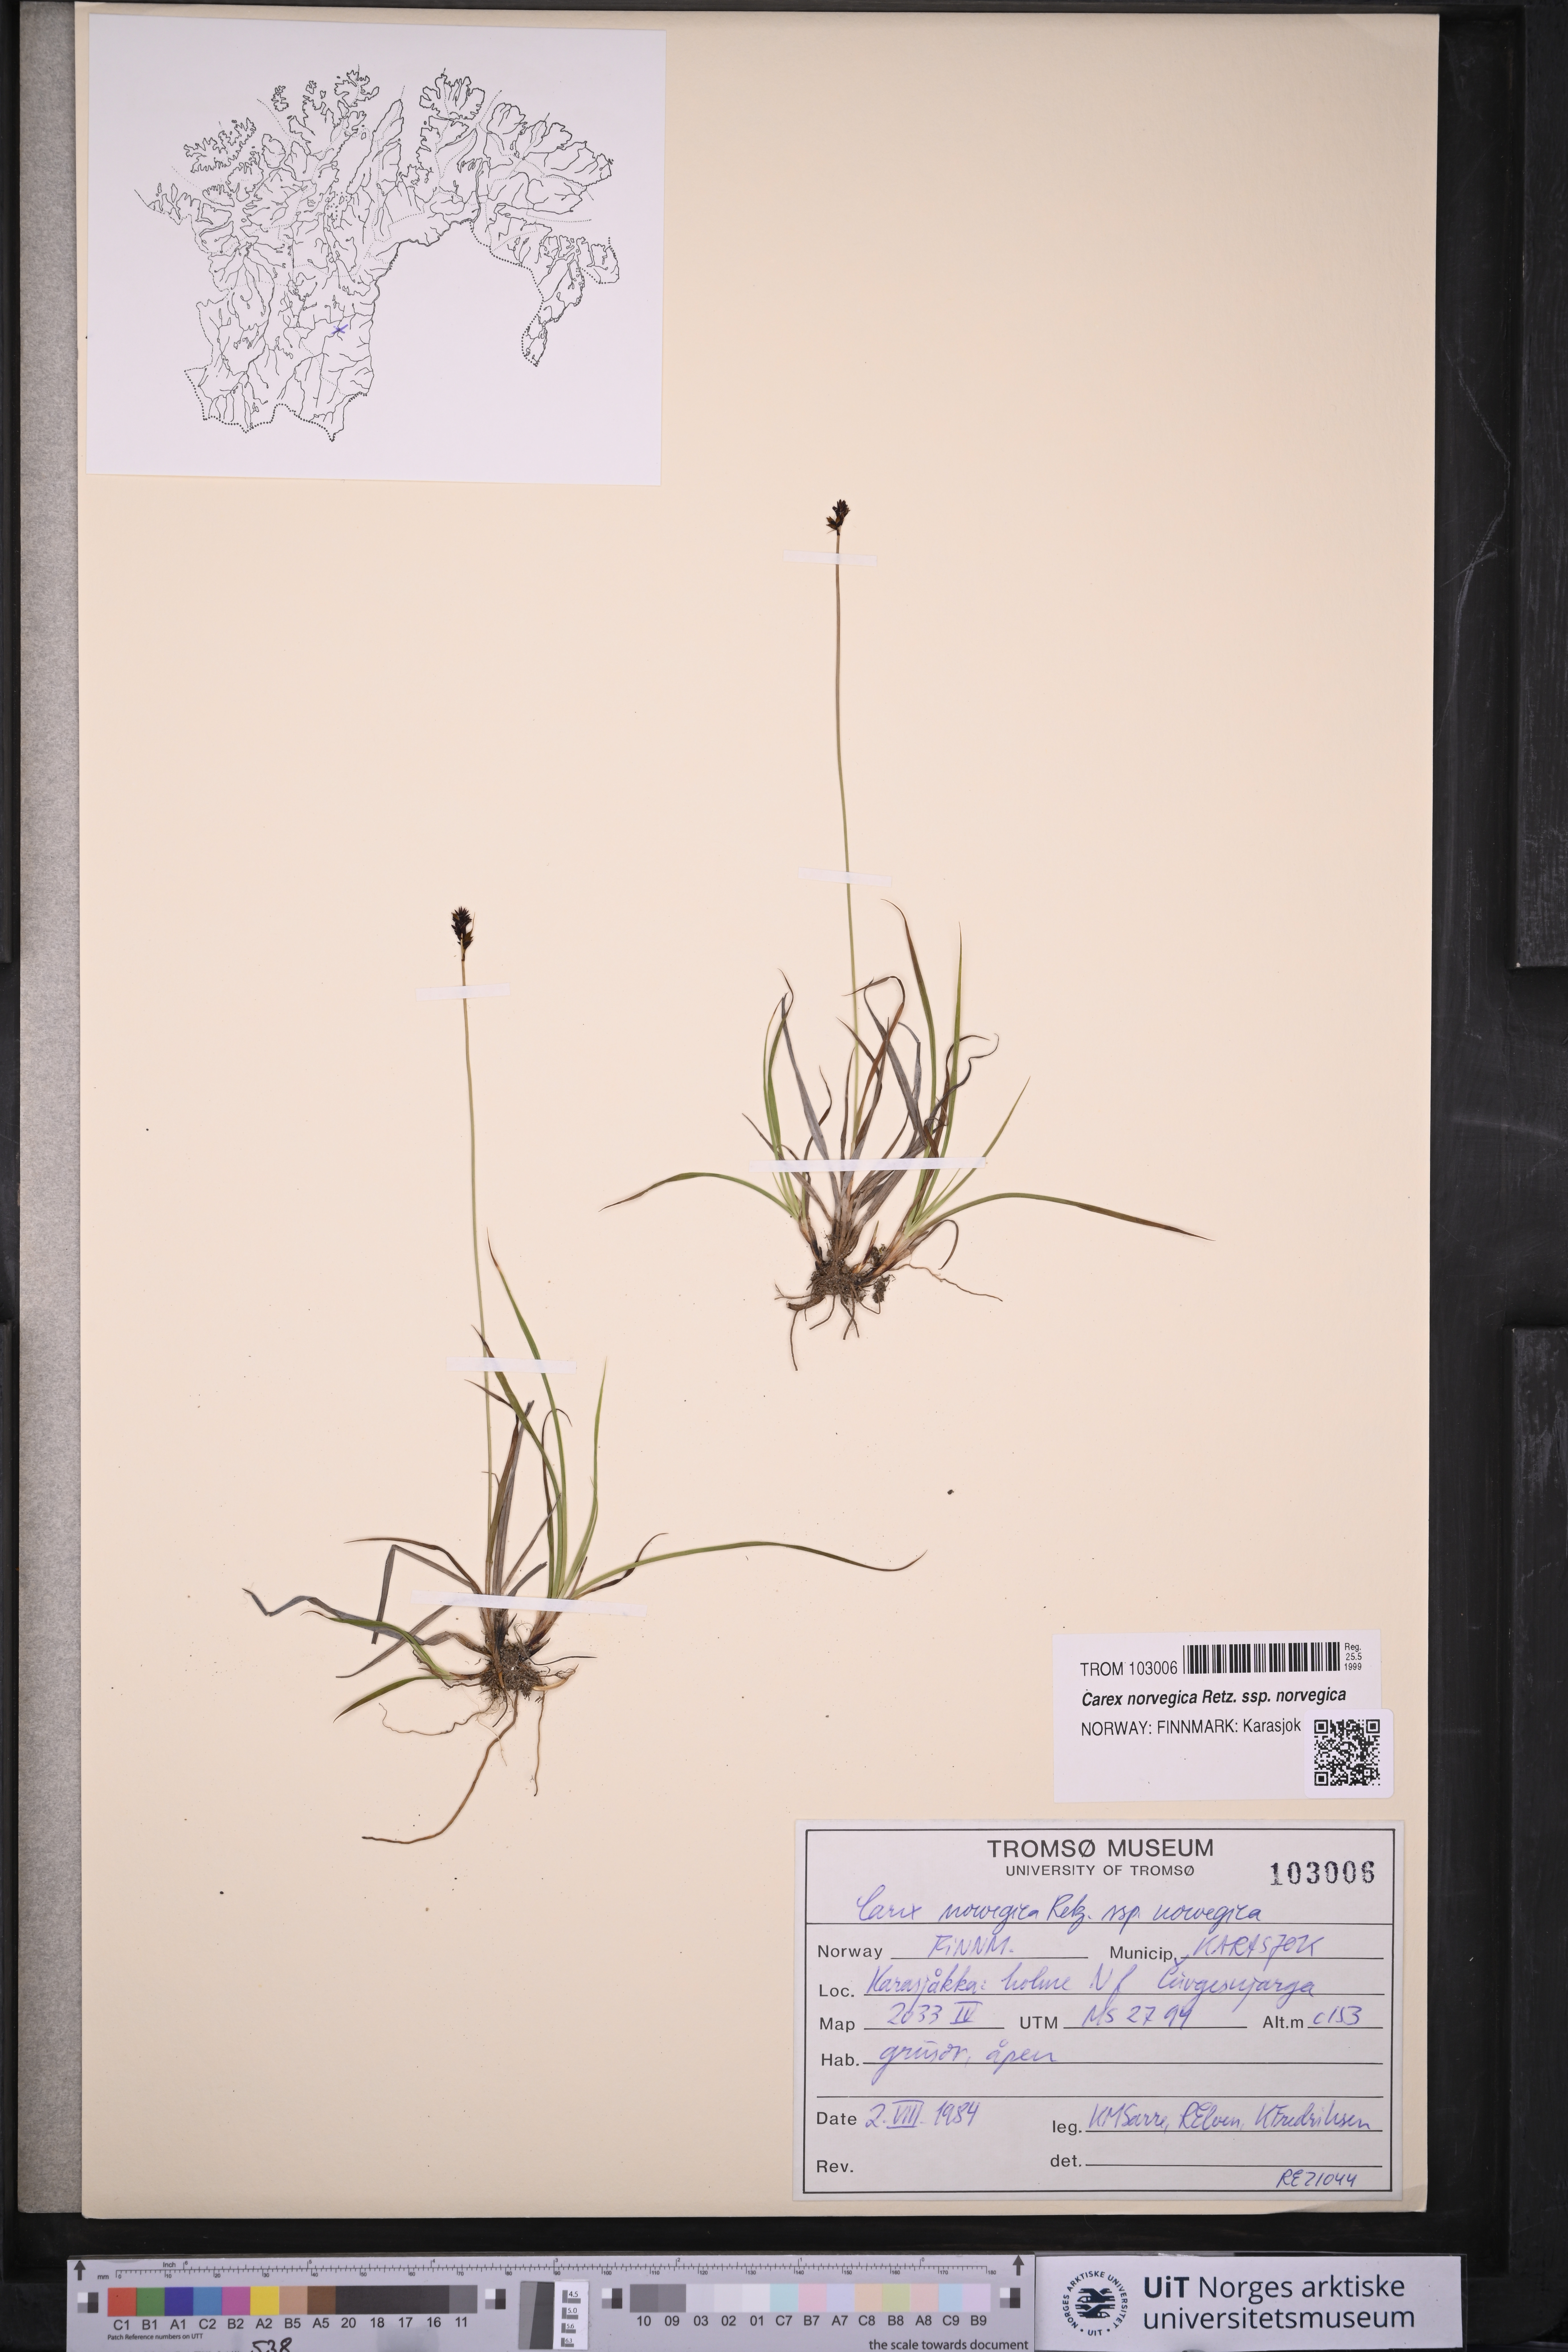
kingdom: Plantae
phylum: Tracheophyta
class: Liliopsida
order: Poales
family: Cyperaceae
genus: Carex
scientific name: Carex norvegica
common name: Close-headed alpine-sedge
